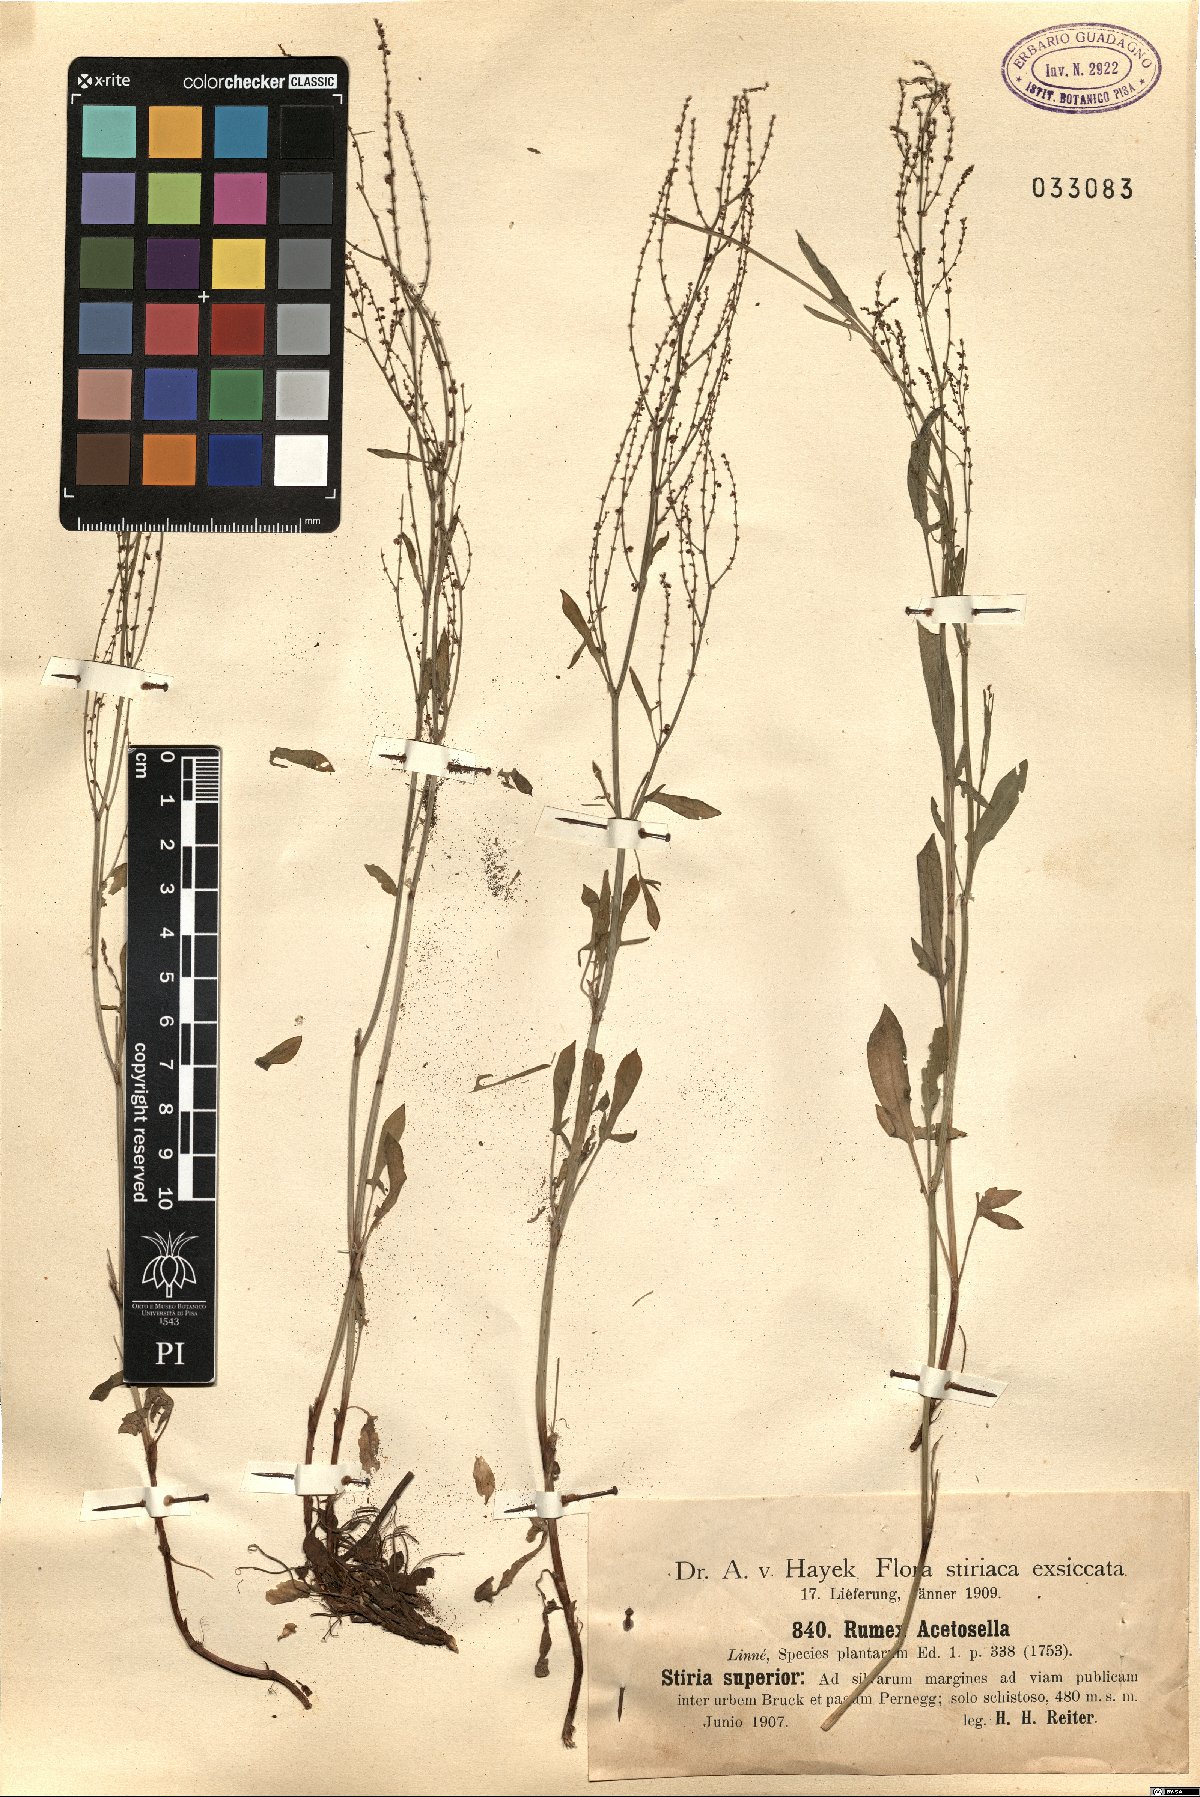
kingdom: Plantae
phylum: Tracheophyta
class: Magnoliopsida
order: Caryophyllales
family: Polygonaceae
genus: Rumex
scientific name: Rumex acetosella
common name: Common sheep sorrel
